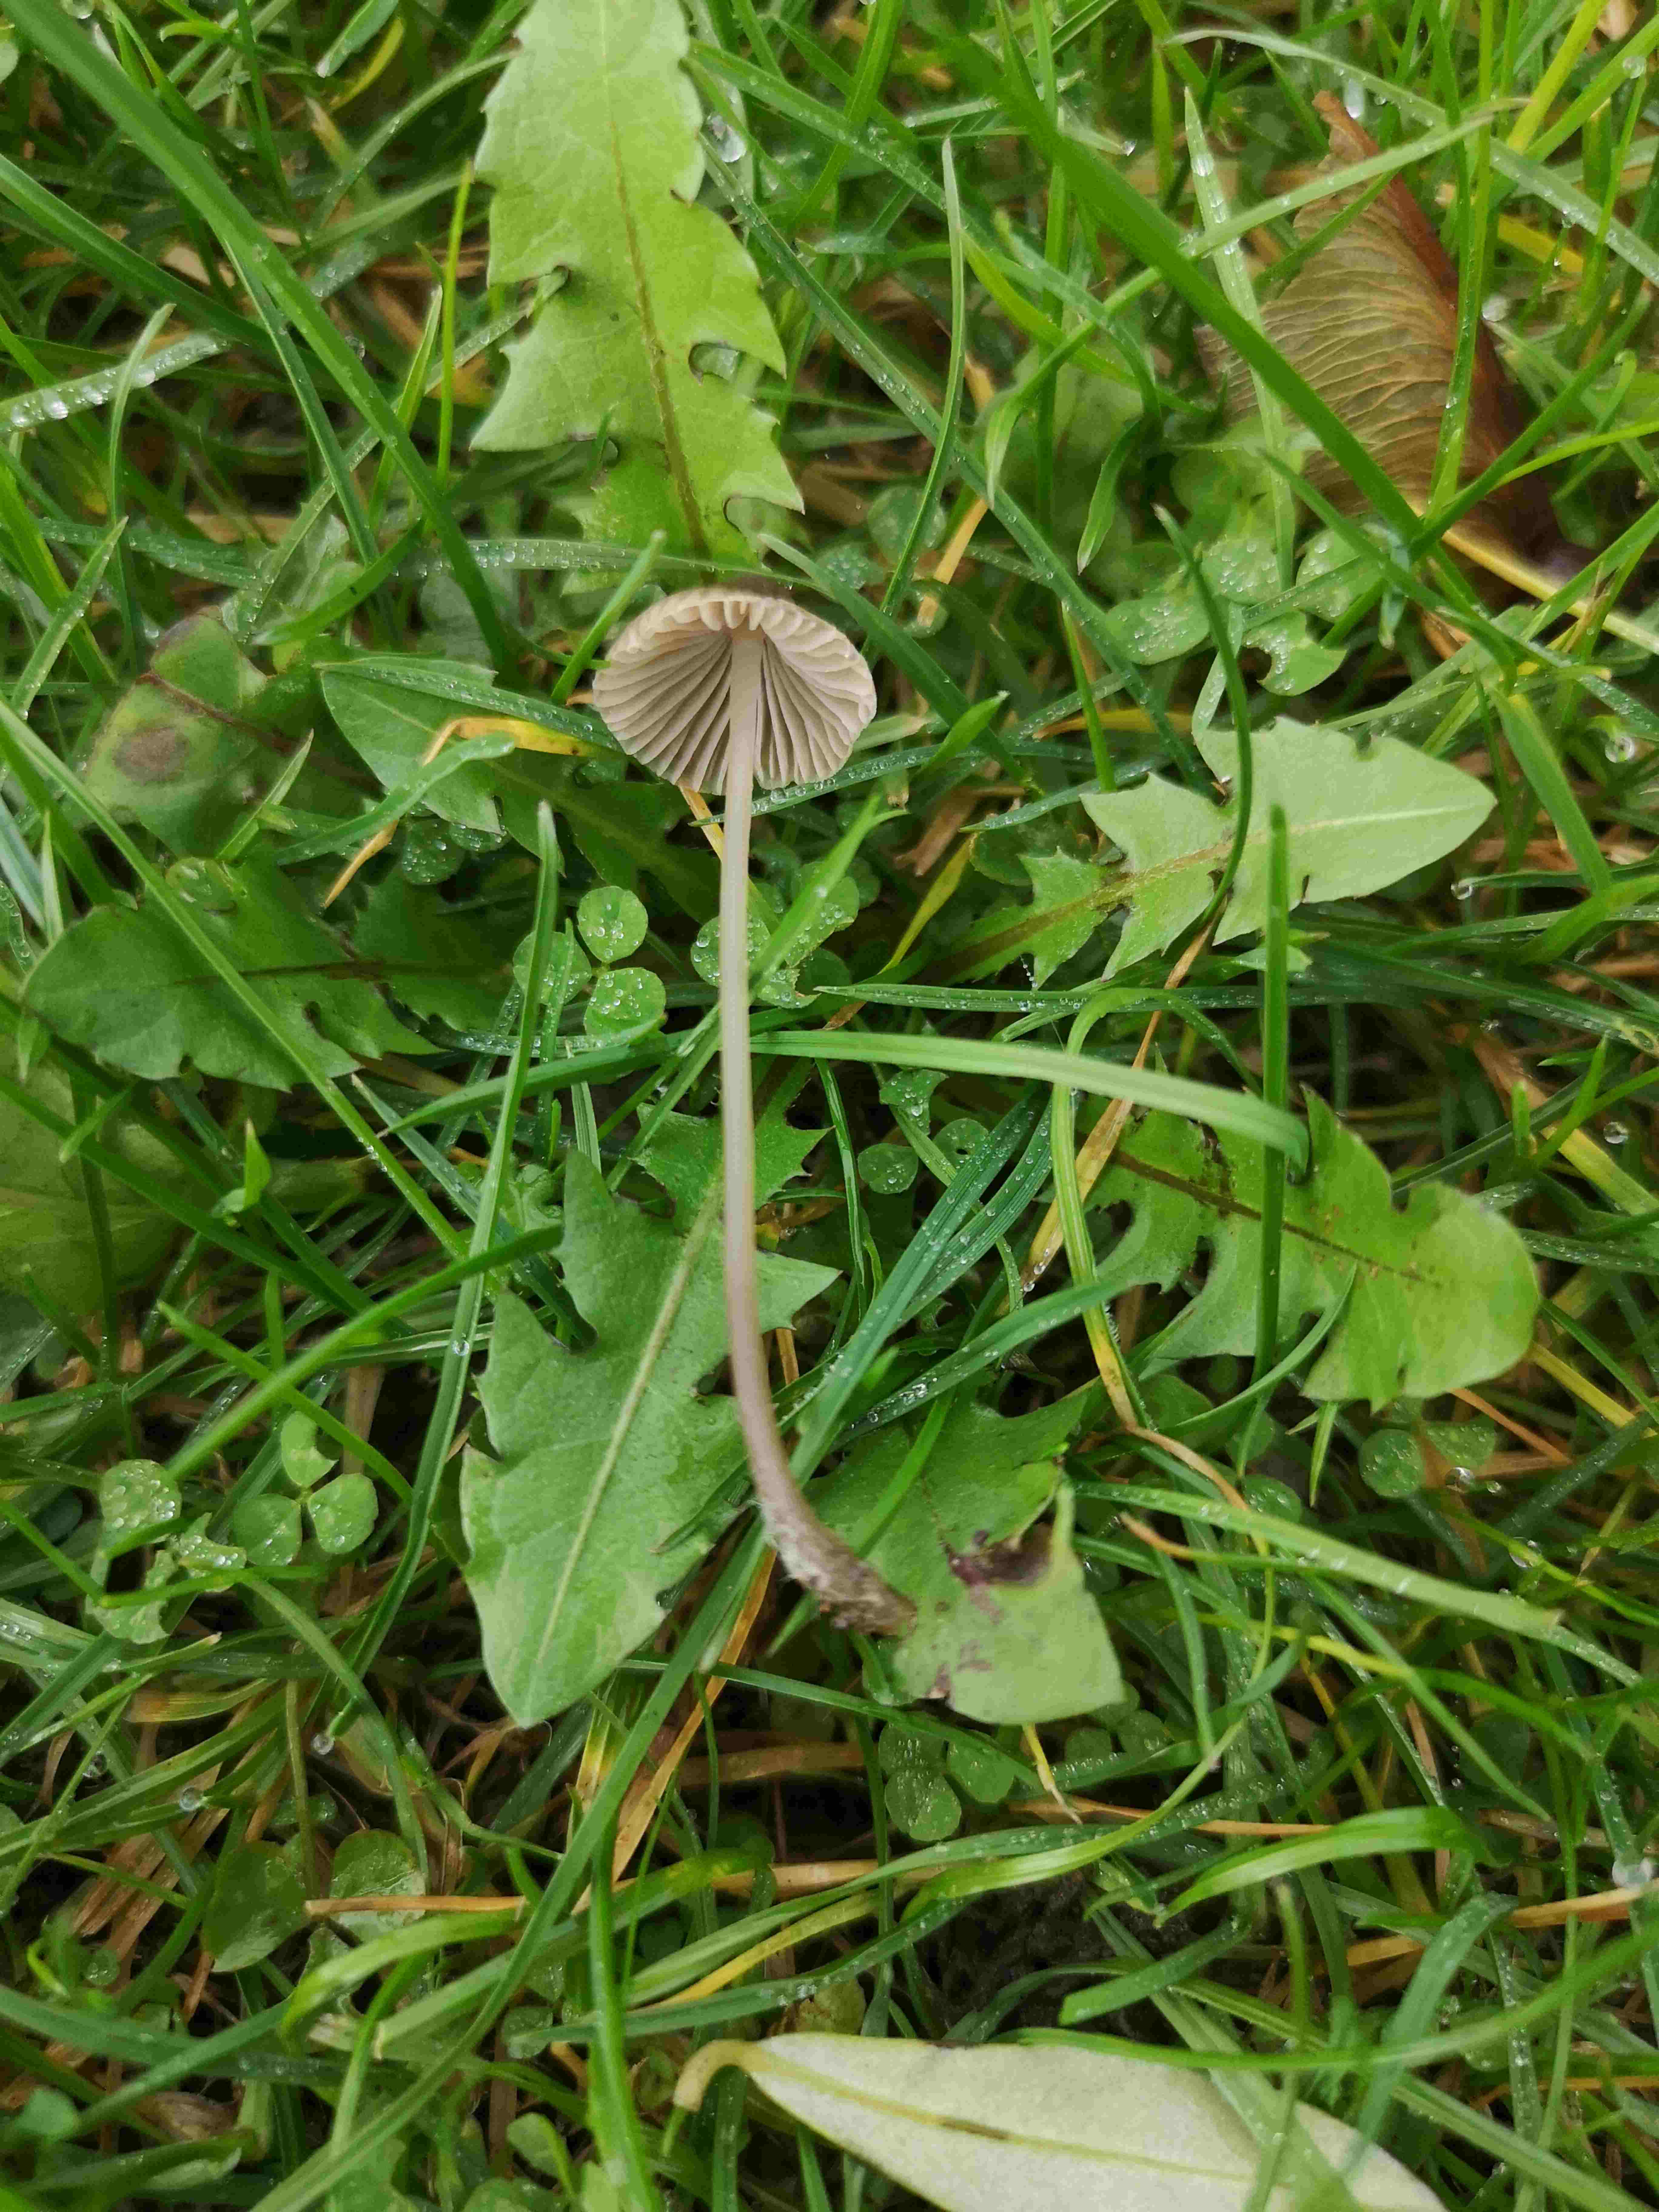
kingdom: Fungi
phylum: Basidiomycota
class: Agaricomycetes
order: Agaricales
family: Mycenaceae
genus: Mycena
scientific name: Mycena
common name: huesvamp
